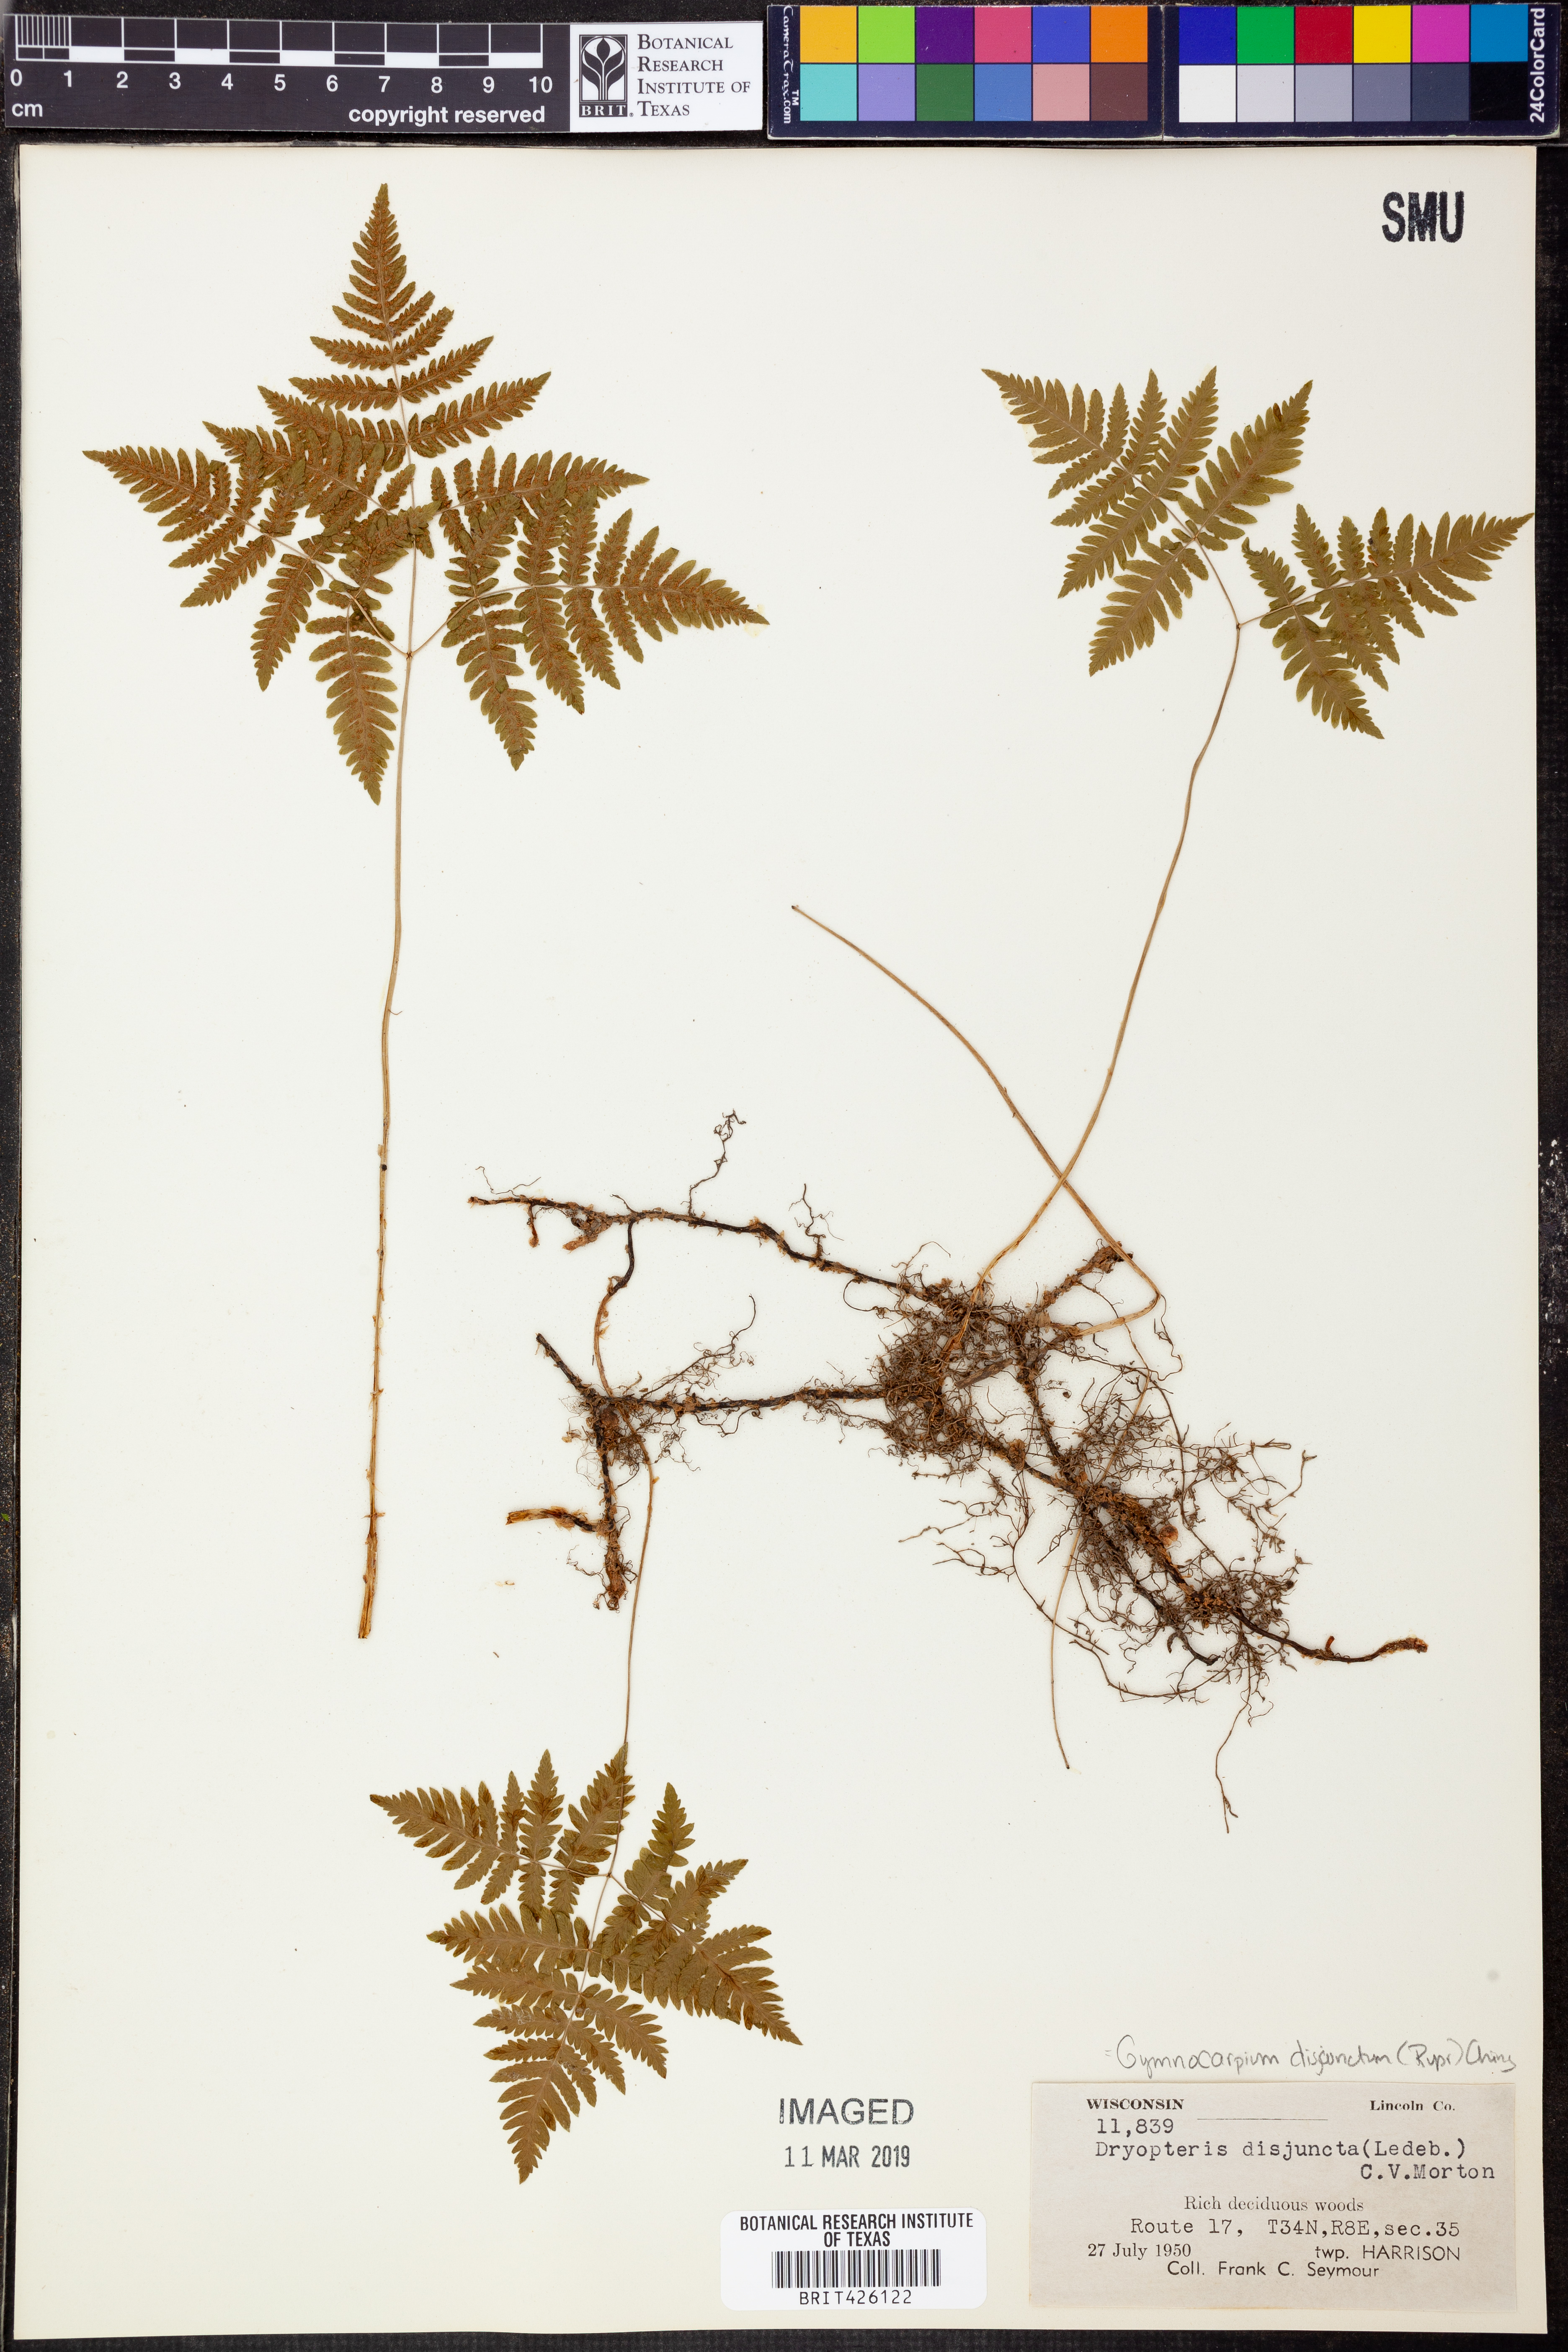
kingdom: Plantae
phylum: Tracheophyta
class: Polypodiopsida
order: Polypodiales
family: Cystopteridaceae
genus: Gymnocarpium
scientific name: Gymnocarpium dryopteris
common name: Oak fern
